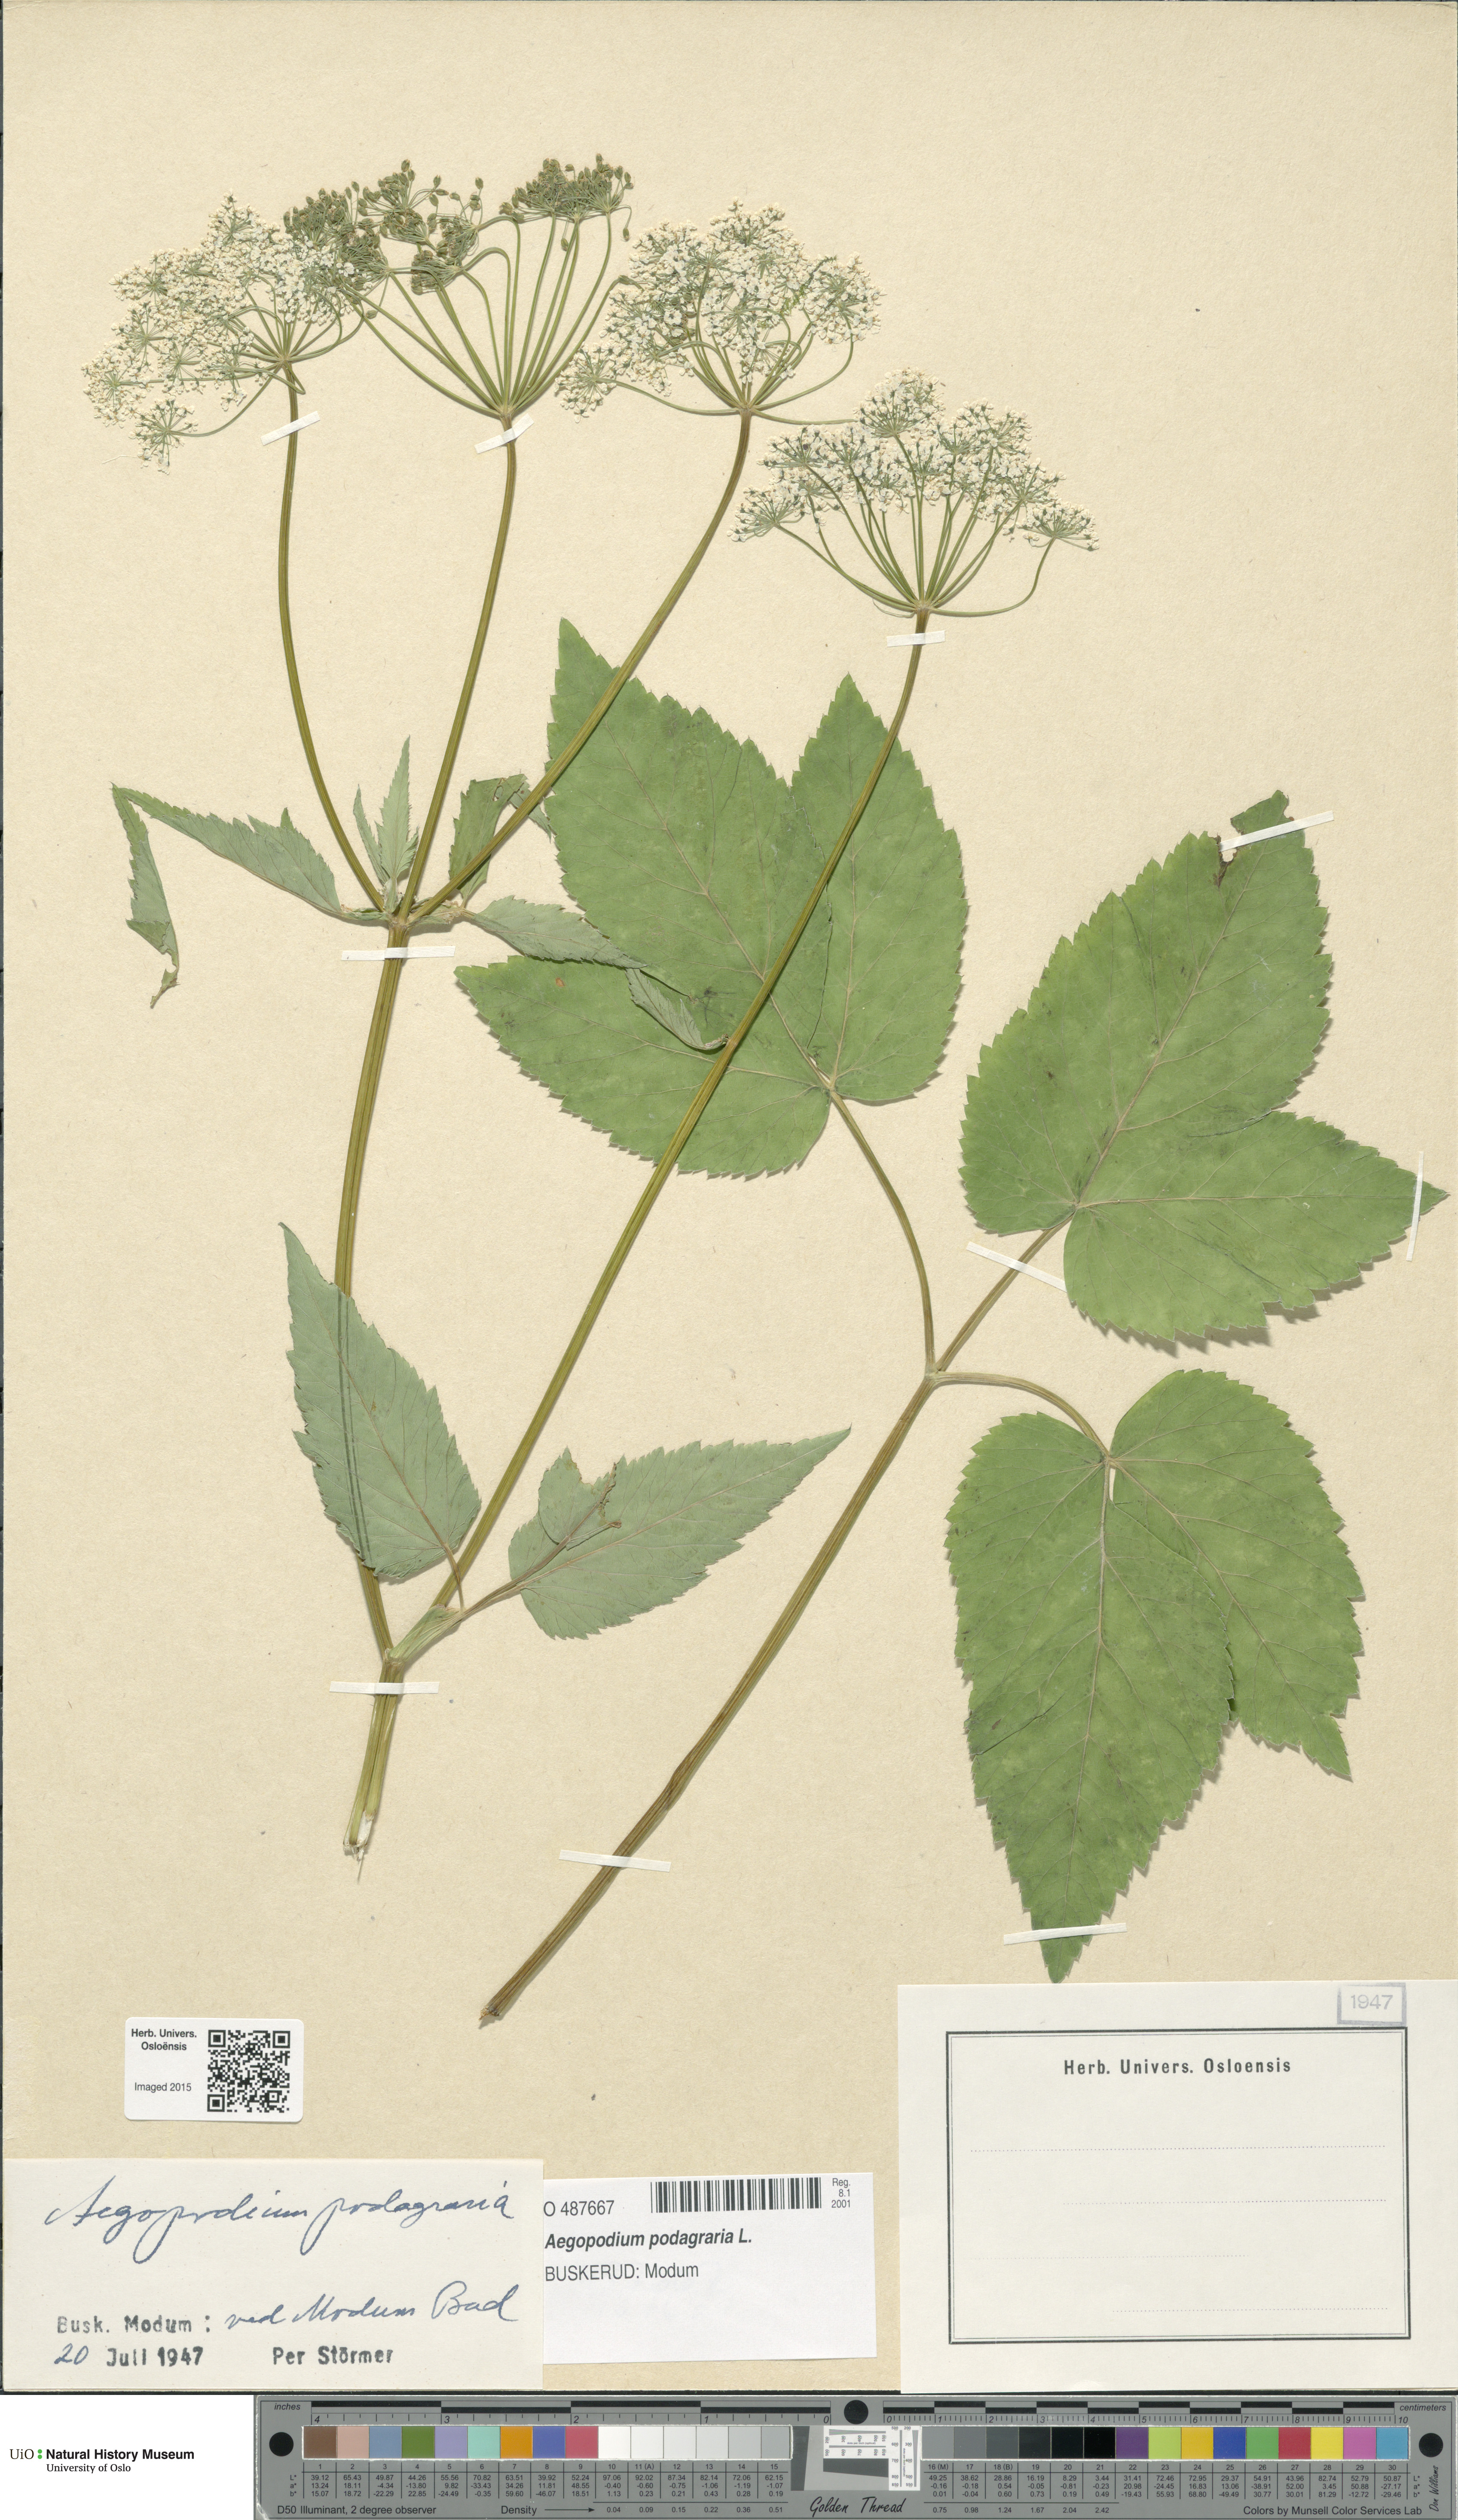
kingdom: Plantae
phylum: Tracheophyta
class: Magnoliopsida
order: Apiales
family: Apiaceae
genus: Aegopodium
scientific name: Aegopodium podagraria
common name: Ground-elder
